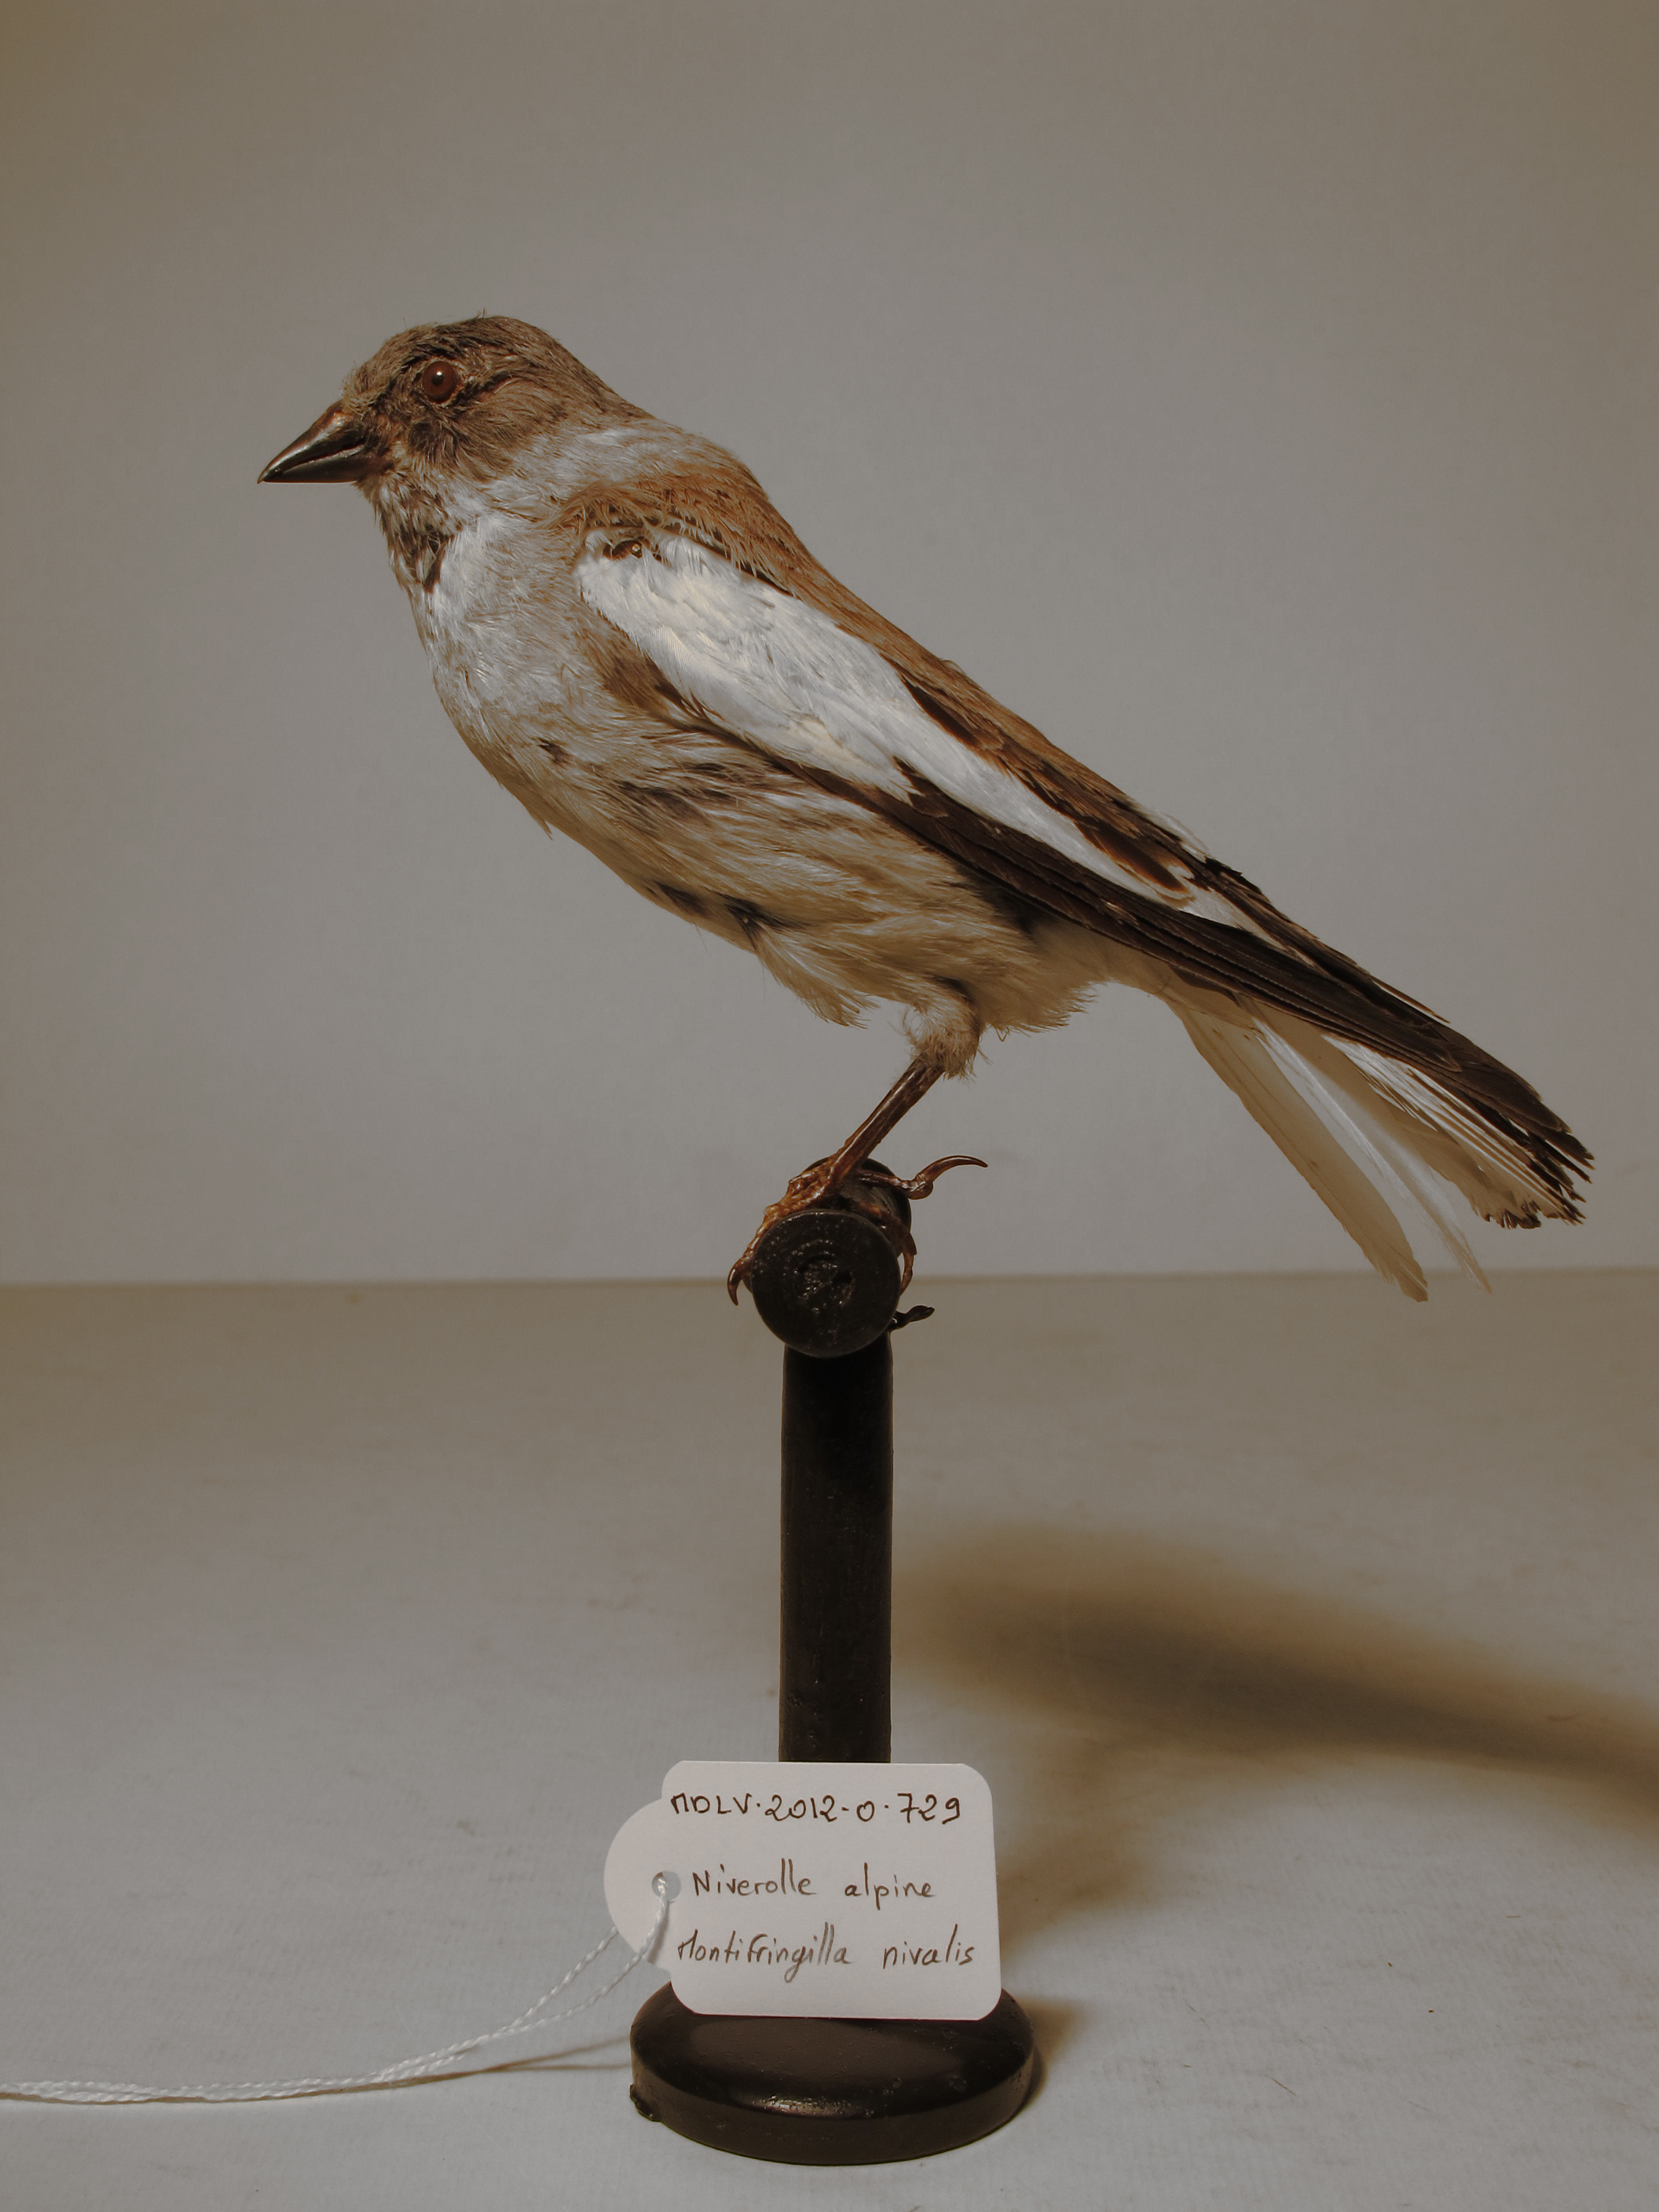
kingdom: Animalia
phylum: Chordata
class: Aves
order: Passeriformes
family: Passeridae
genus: Montifringilla
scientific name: Montifringilla nivalis
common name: White-winged Snowfinch
